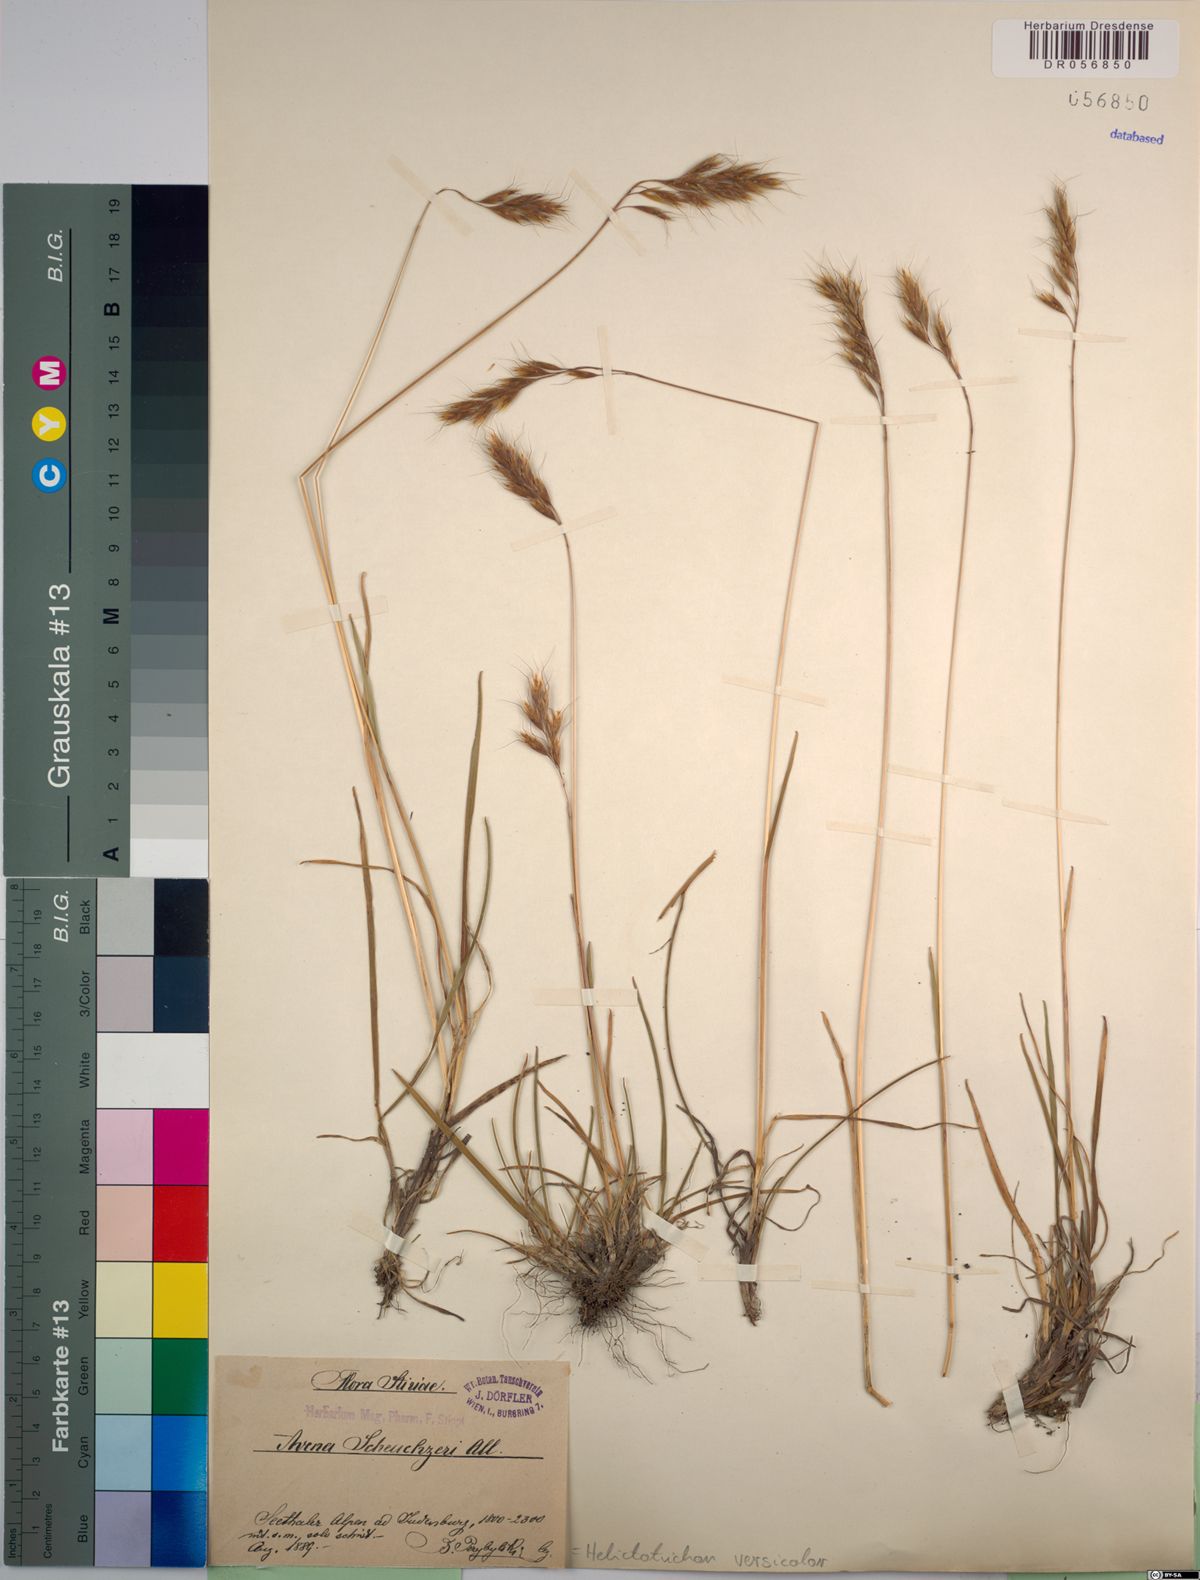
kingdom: Plantae
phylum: Tracheophyta
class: Liliopsida
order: Poales
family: Poaceae
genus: Helictochloa
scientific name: Helictochloa versicolor
